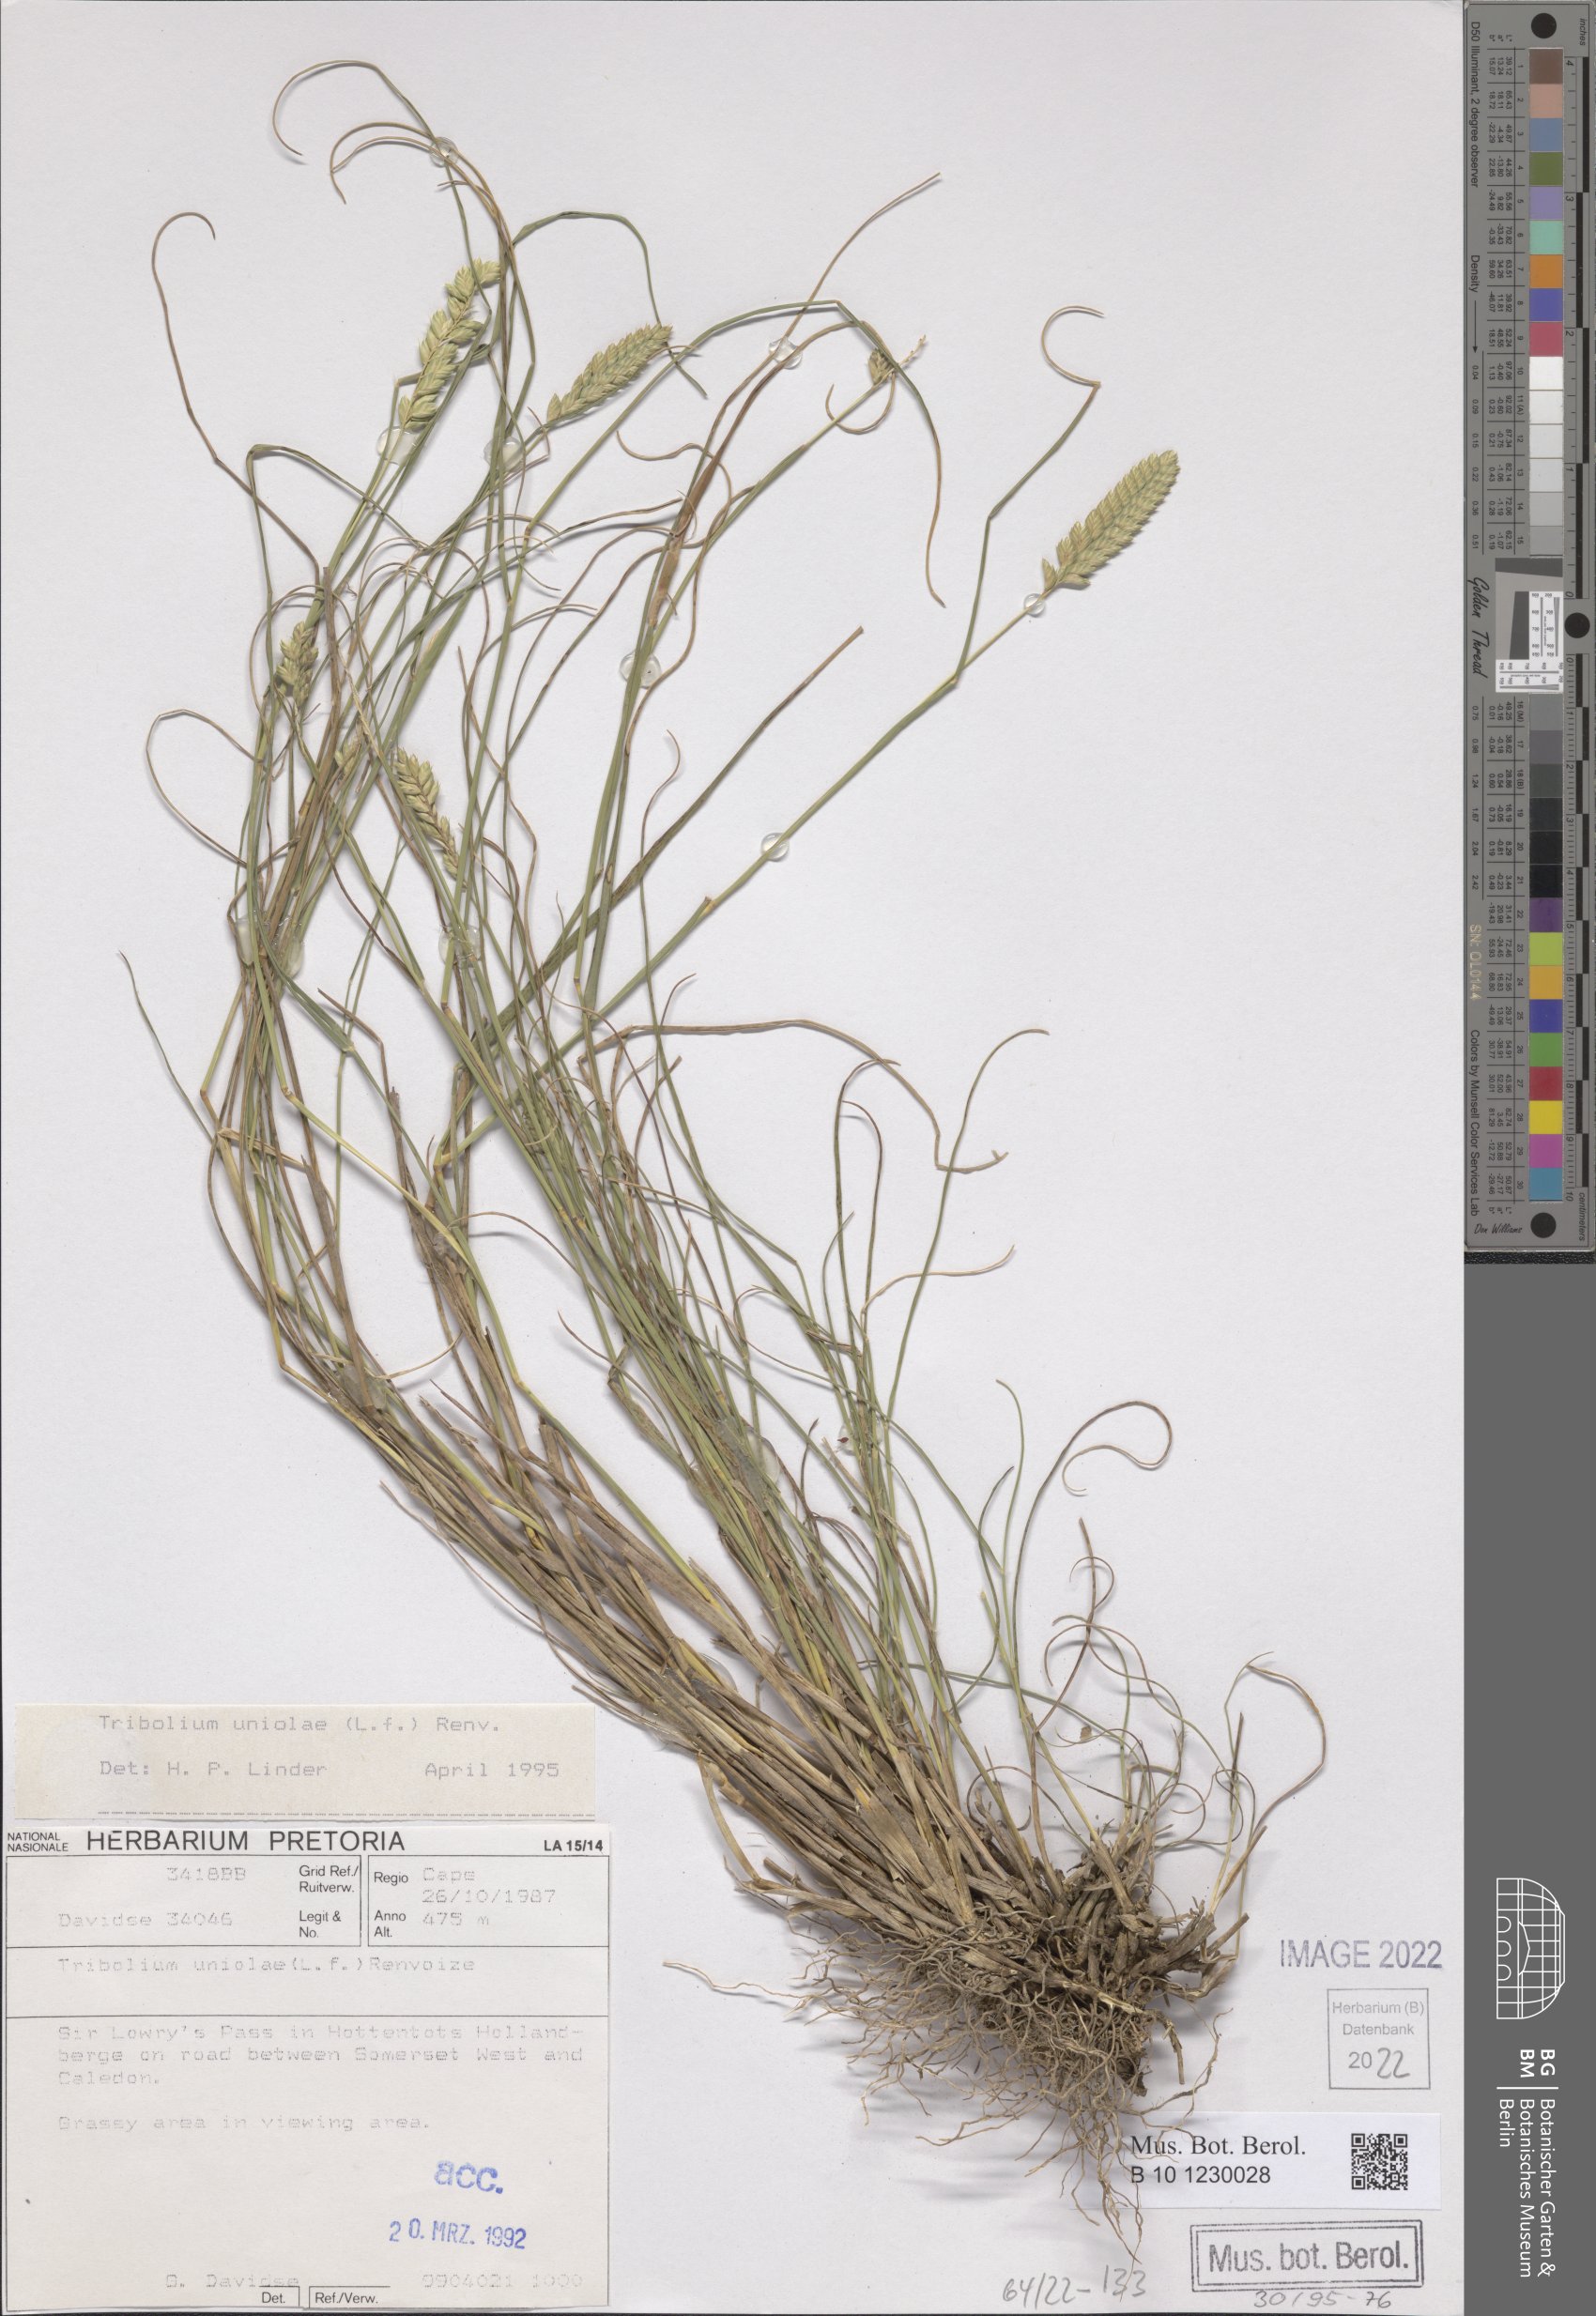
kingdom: Plantae
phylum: Tracheophyta
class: Liliopsida
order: Poales
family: Poaceae
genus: Tribolium
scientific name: Tribolium uniolae
